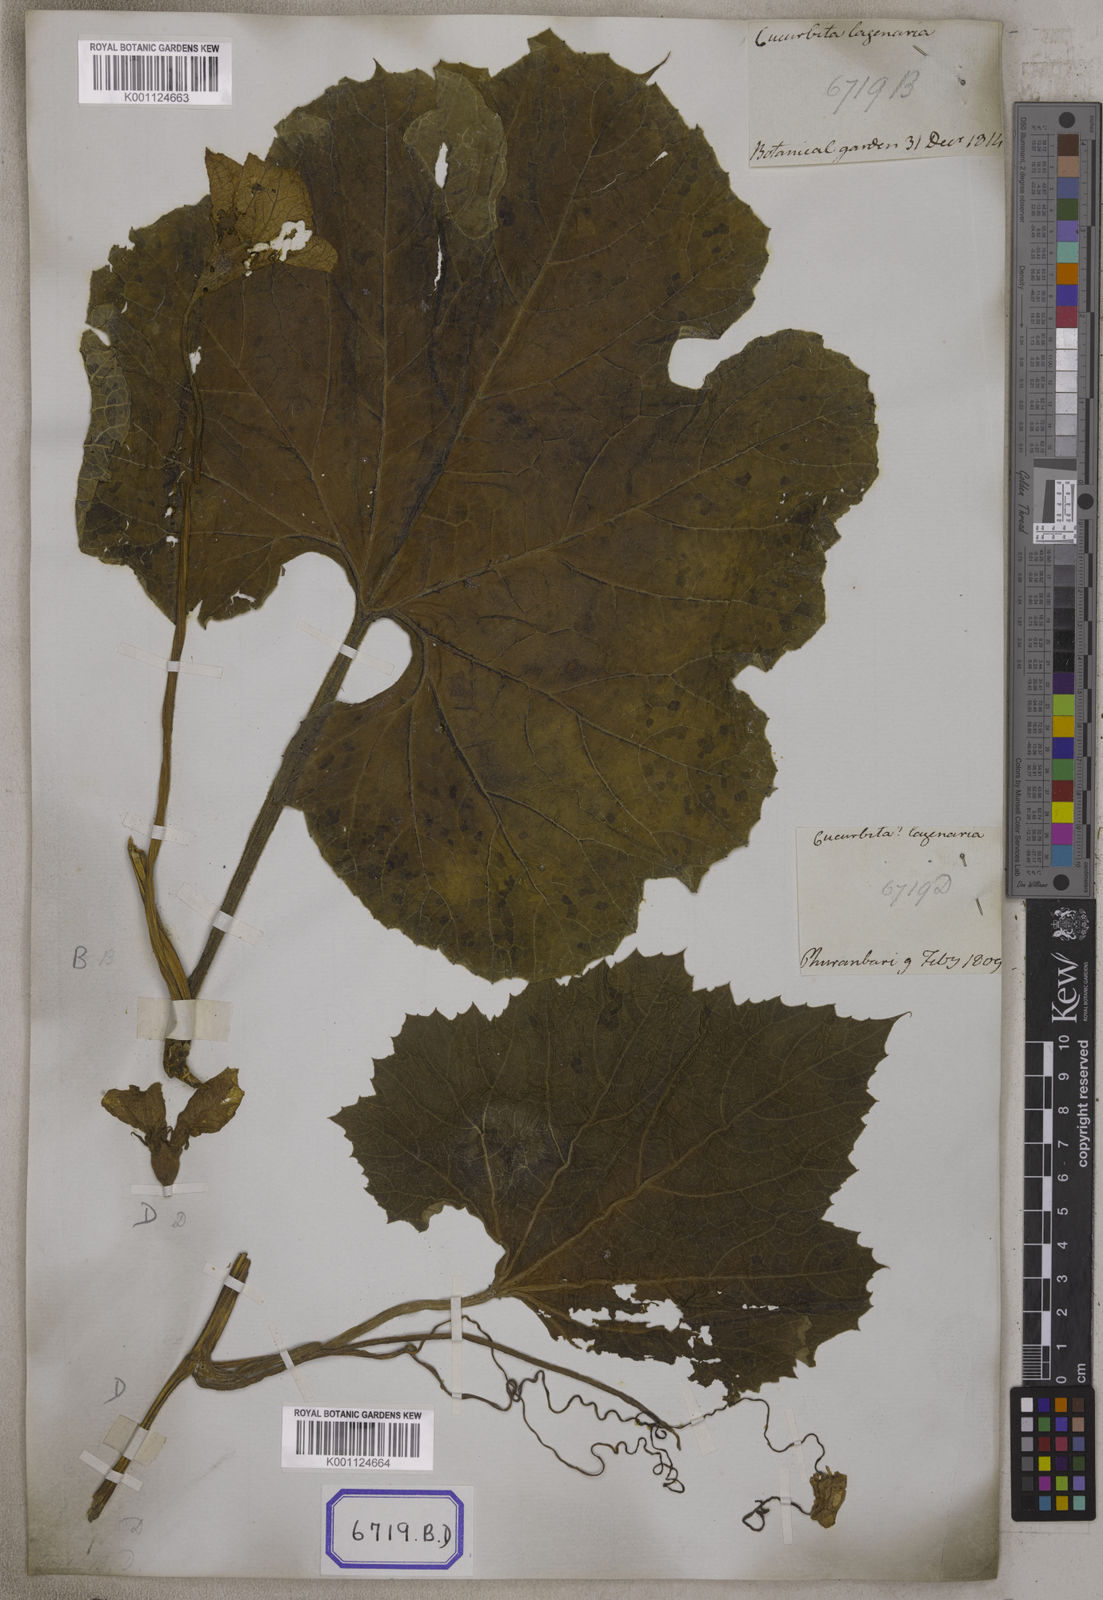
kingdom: Plantae
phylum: Tracheophyta
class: Magnoliopsida
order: Cucurbitales
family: Cucurbitaceae
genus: Lagenaria
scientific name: Lagenaria siceraria
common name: Bottle gourd
